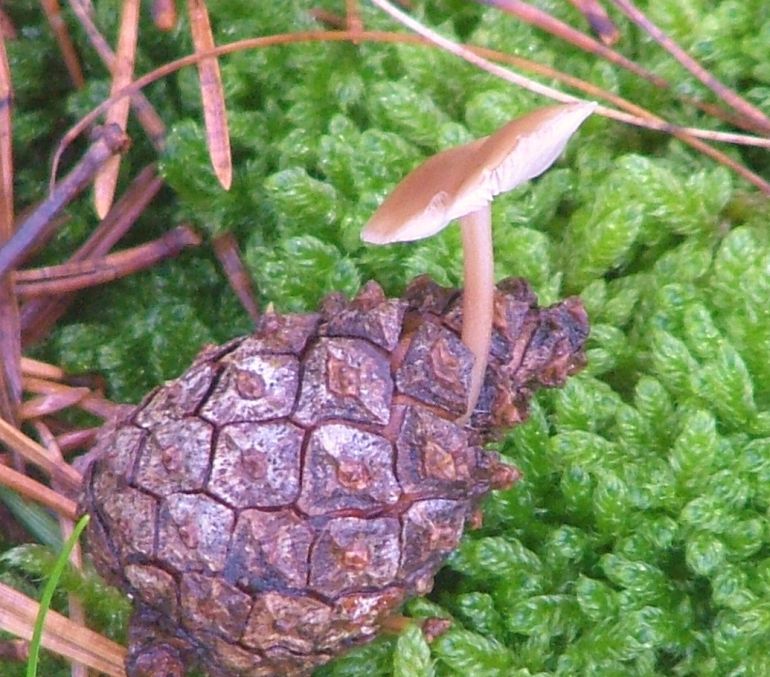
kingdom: Fungi
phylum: Basidiomycota
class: Agaricomycetes
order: Agaricales
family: Marasmiaceae
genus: Baeospora
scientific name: Baeospora myosura
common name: koglebruskhat
